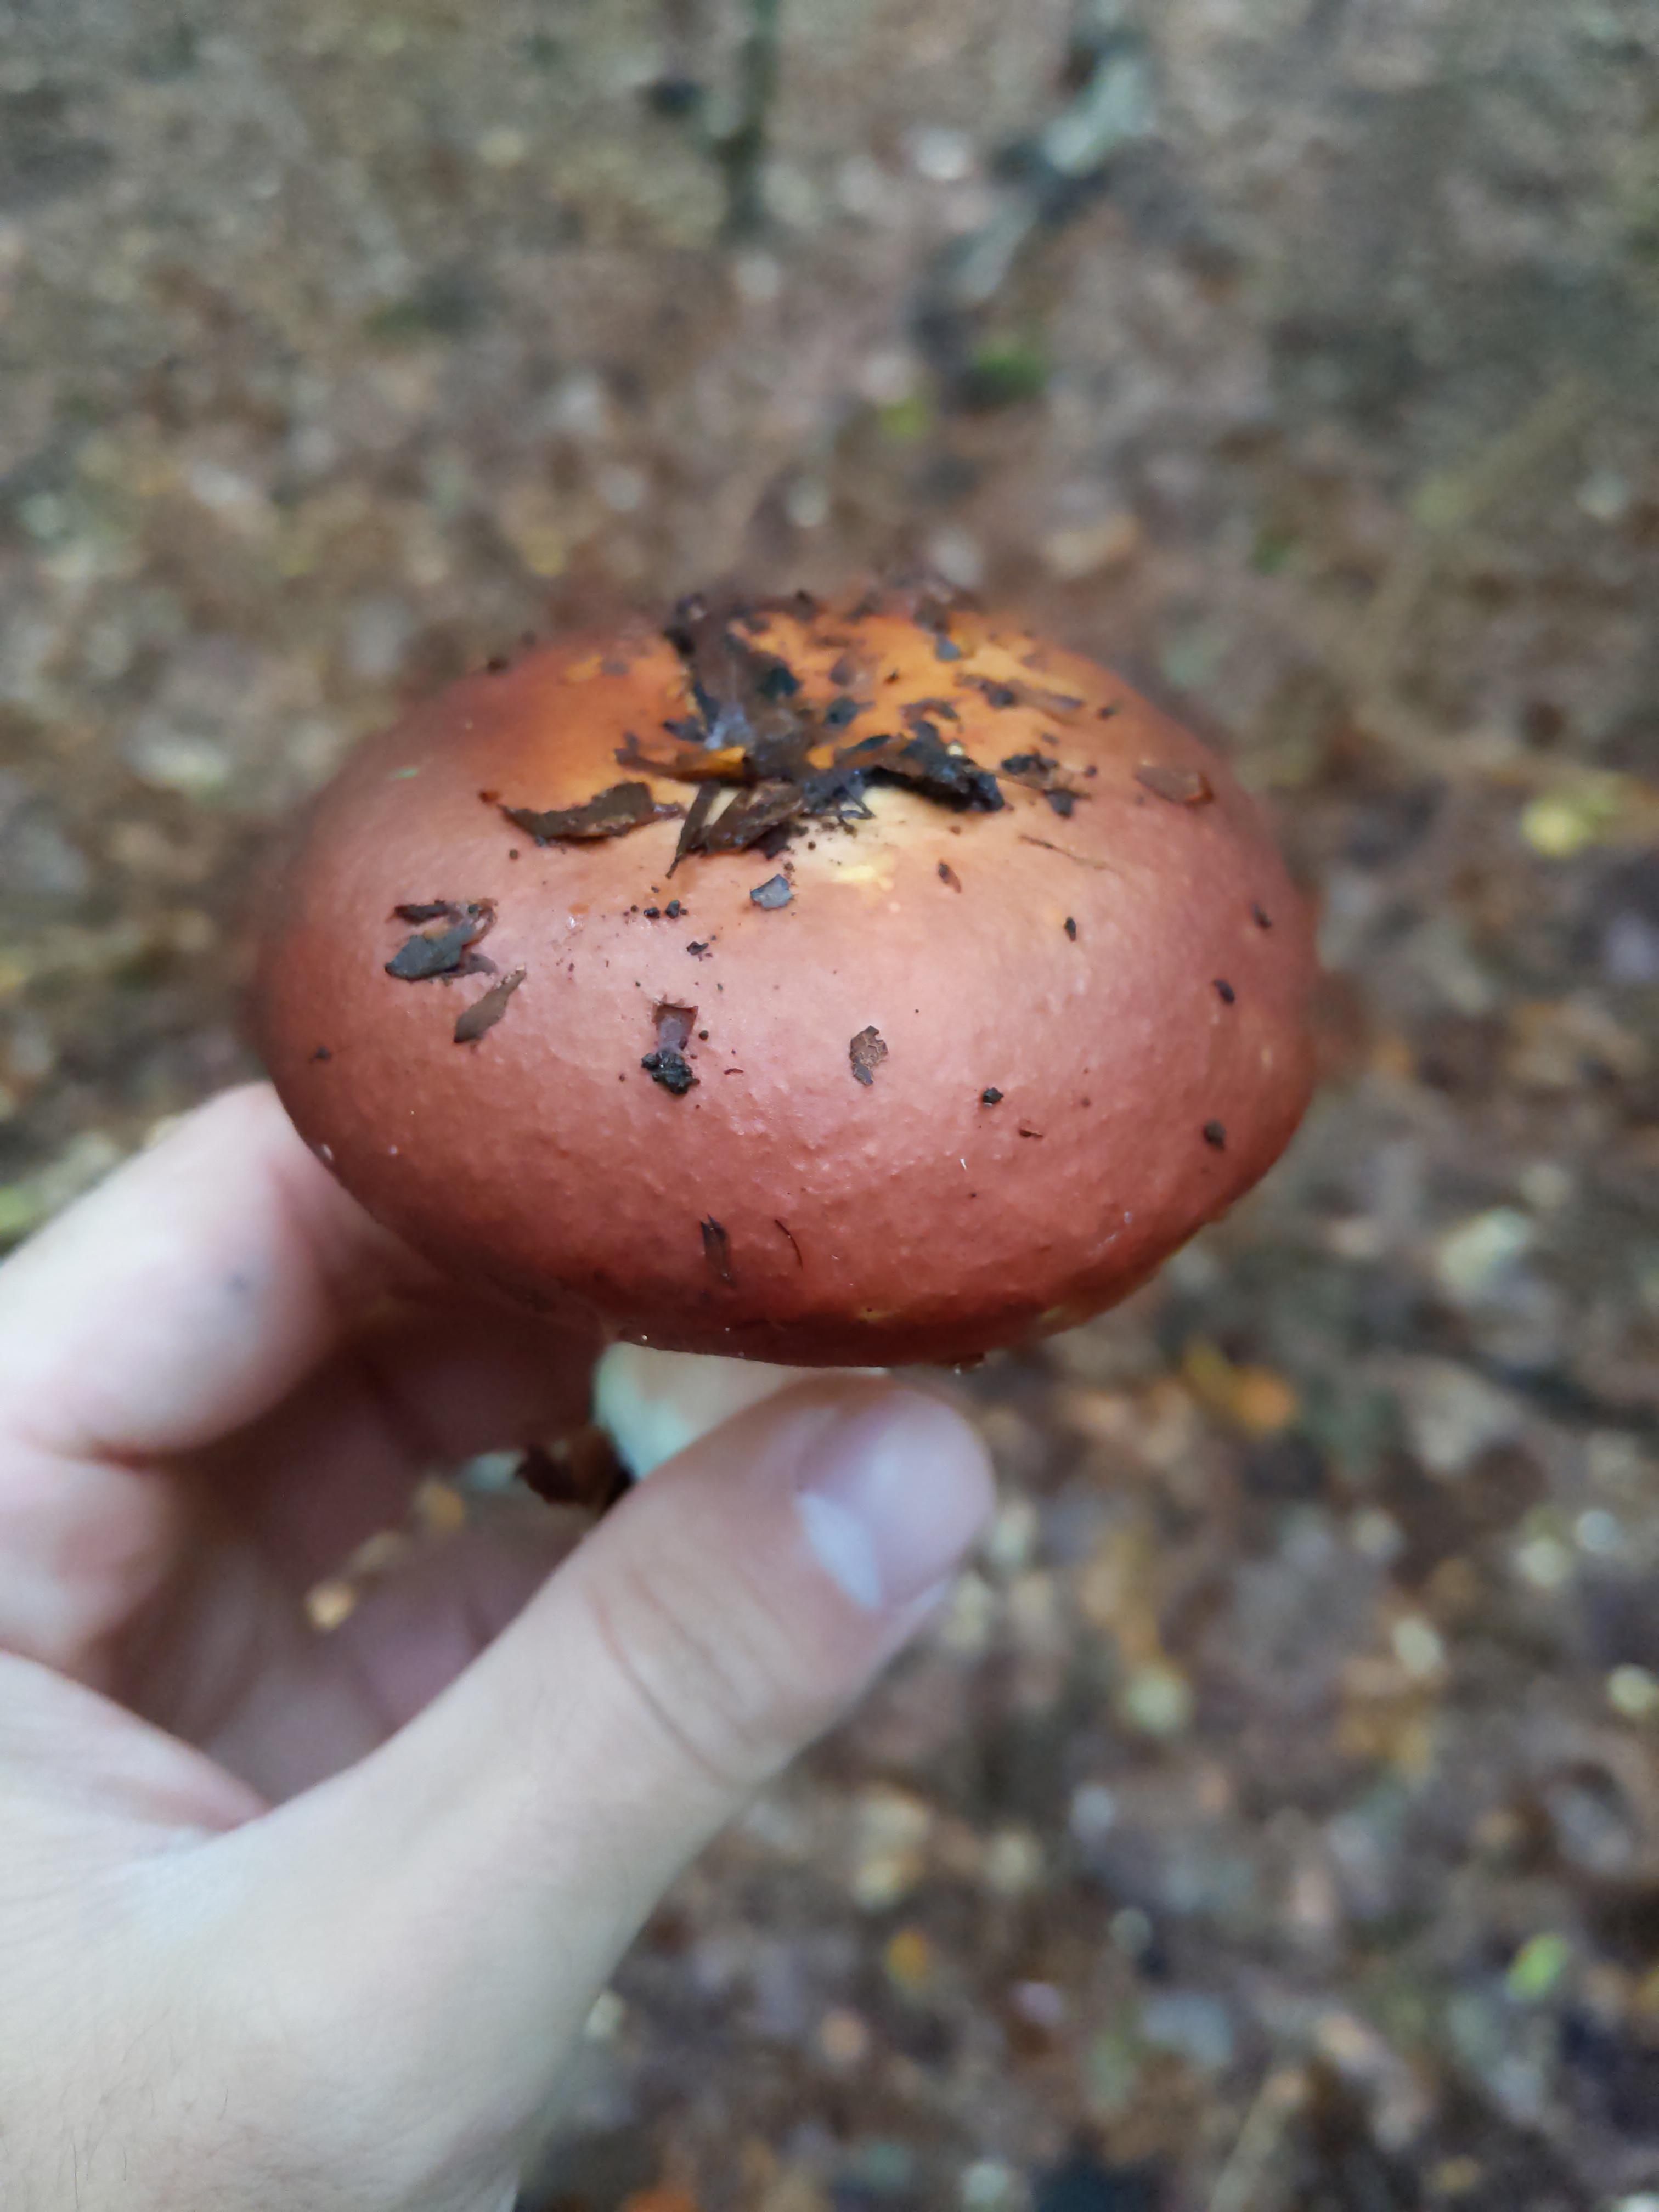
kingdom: Fungi
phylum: Basidiomycota
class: Agaricomycetes
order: Russulales
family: Russulaceae
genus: Russula
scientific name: Russula
